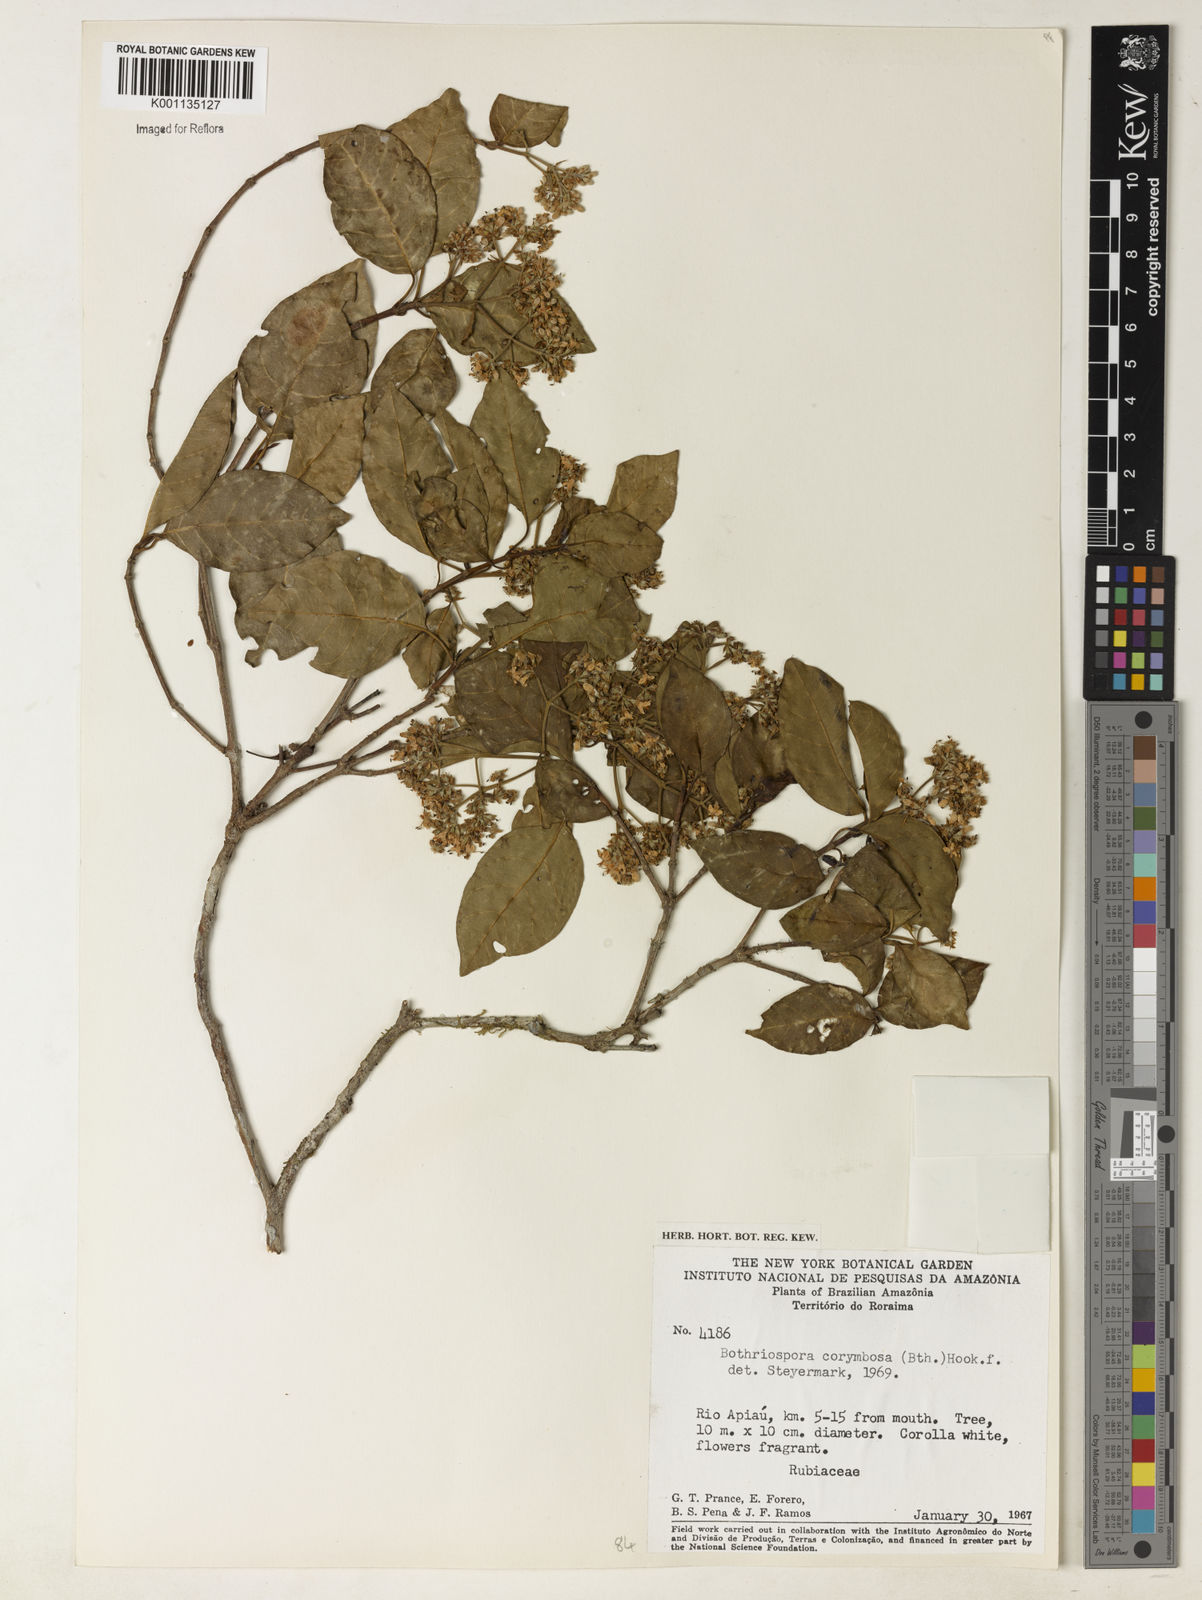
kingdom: Plantae
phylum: Tracheophyta
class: Magnoliopsida
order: Gentianales
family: Rubiaceae
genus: Bothriospora
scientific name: Bothriospora corymbosa
